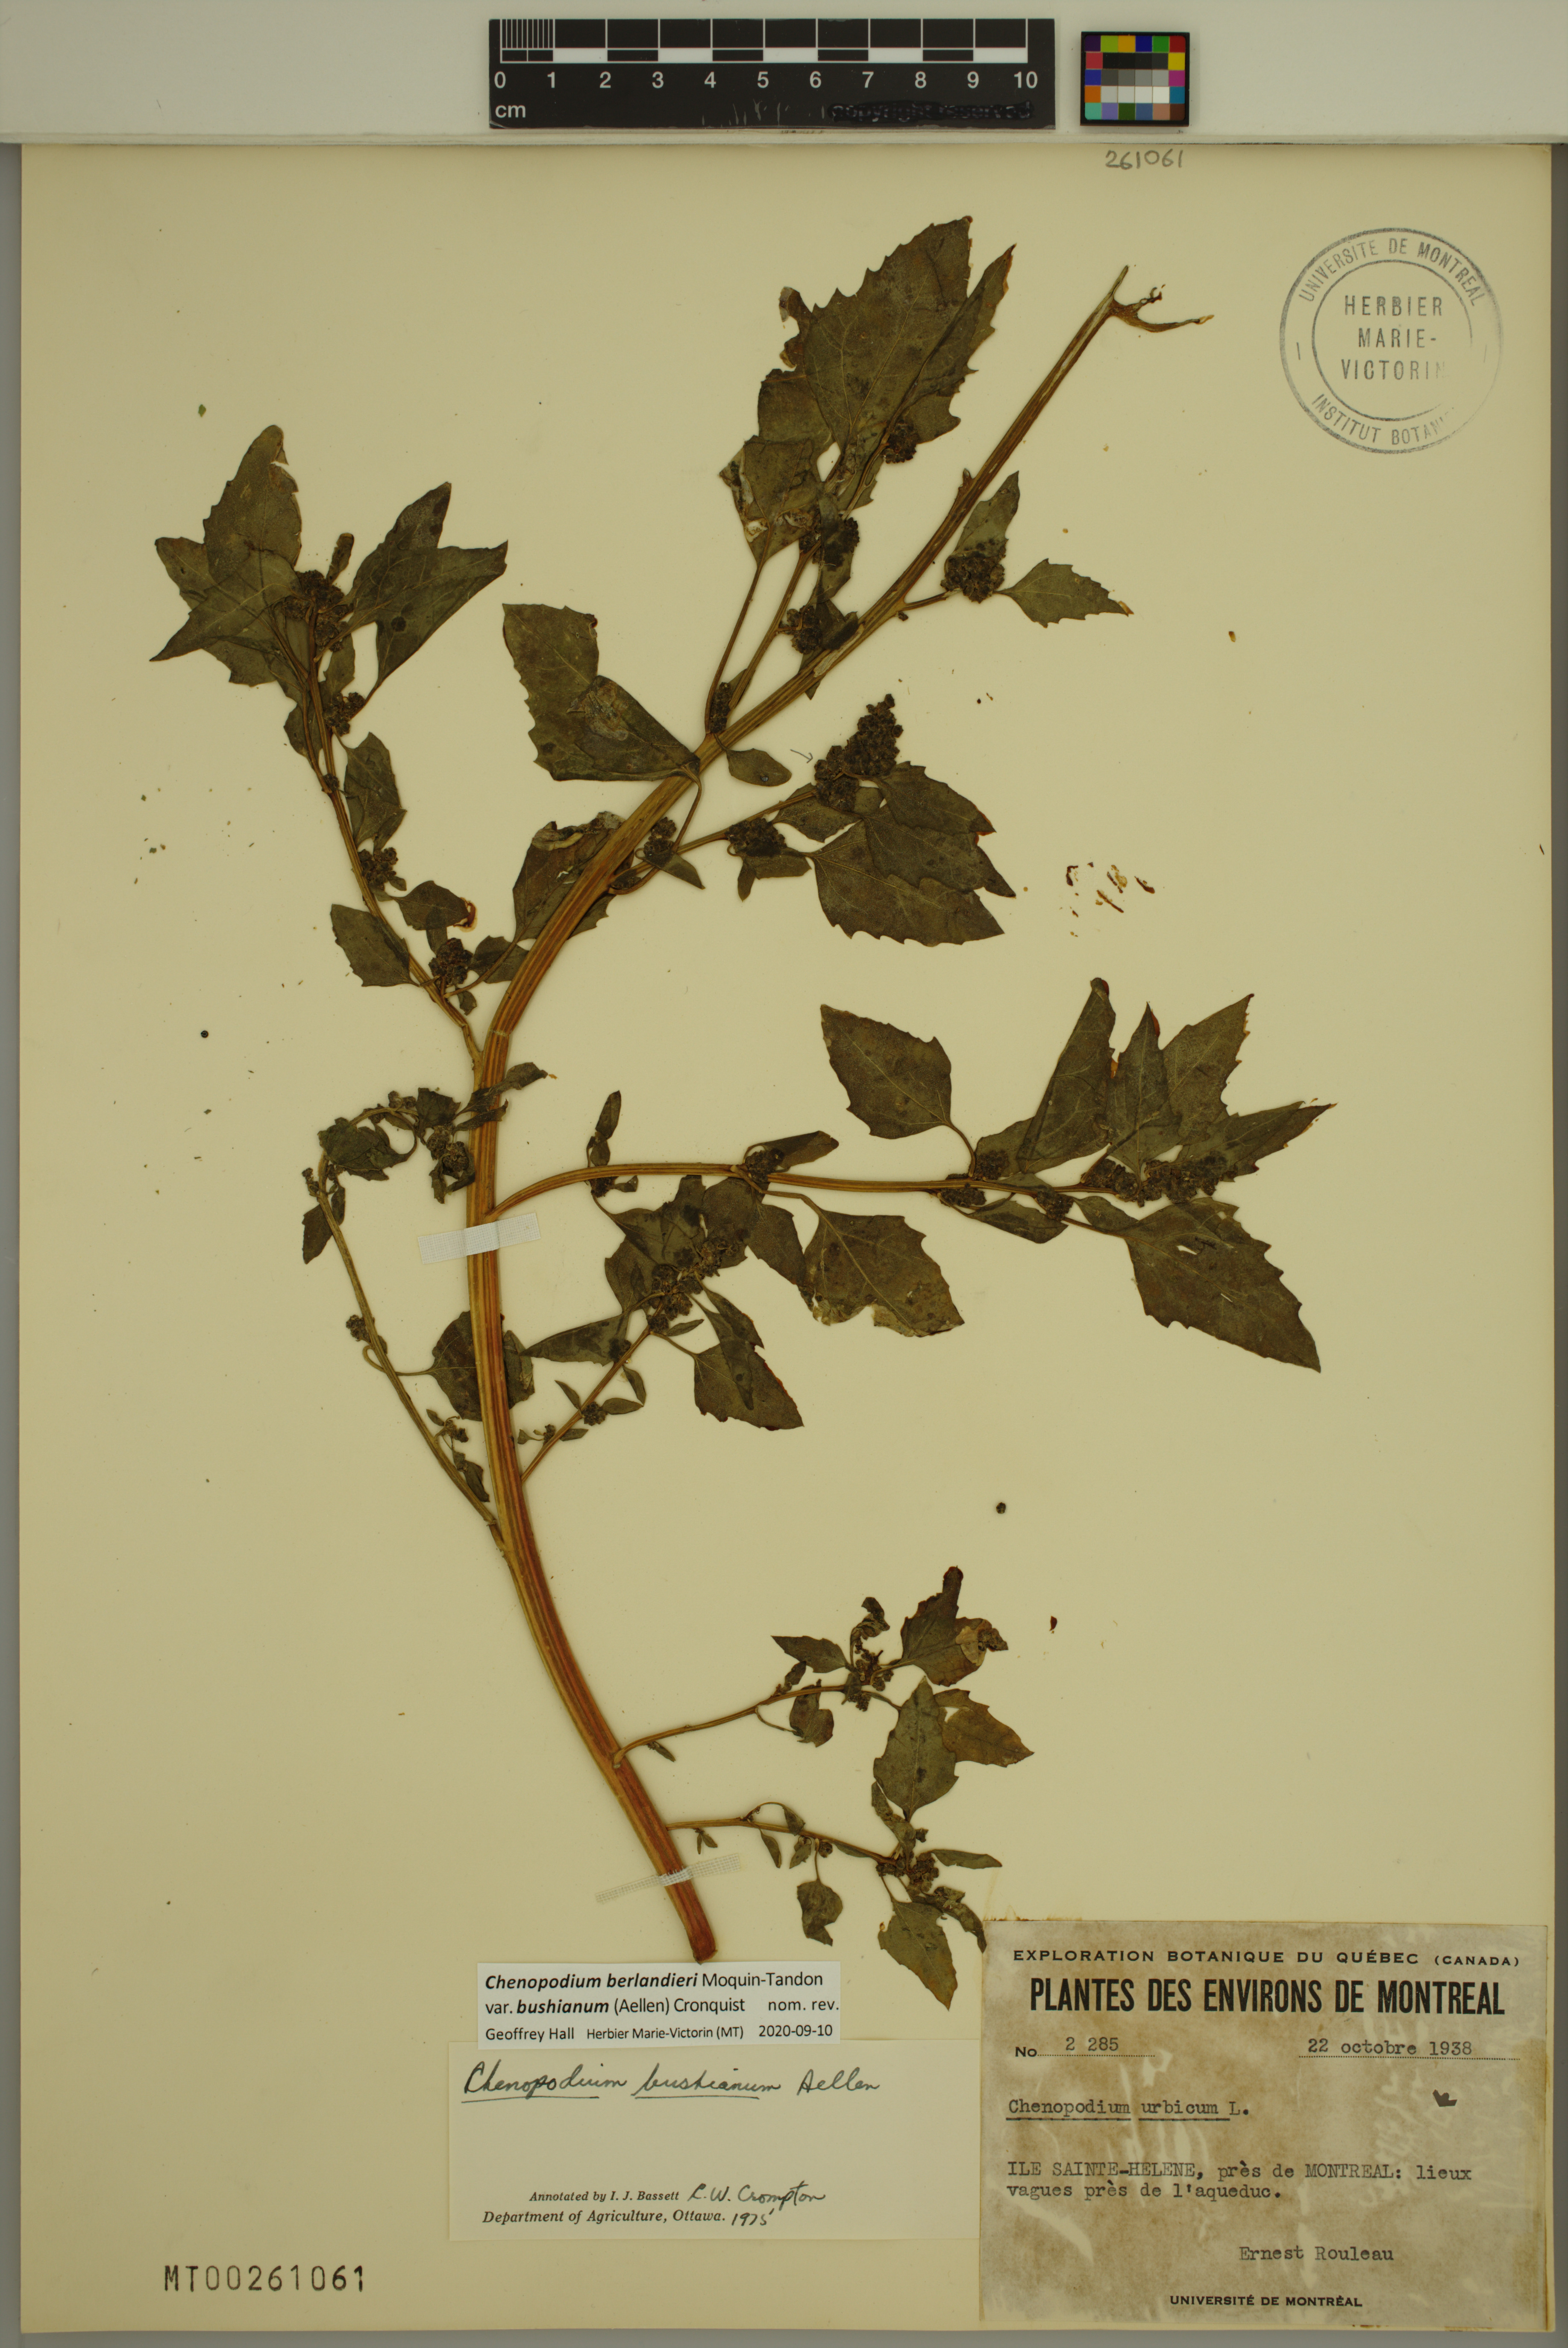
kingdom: Plantae
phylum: Tracheophyta
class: Magnoliopsida
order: Caryophyllales
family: Amaranthaceae
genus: Chenopodium
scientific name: Chenopodium berlandieri
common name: Pit-seed goosefoot
